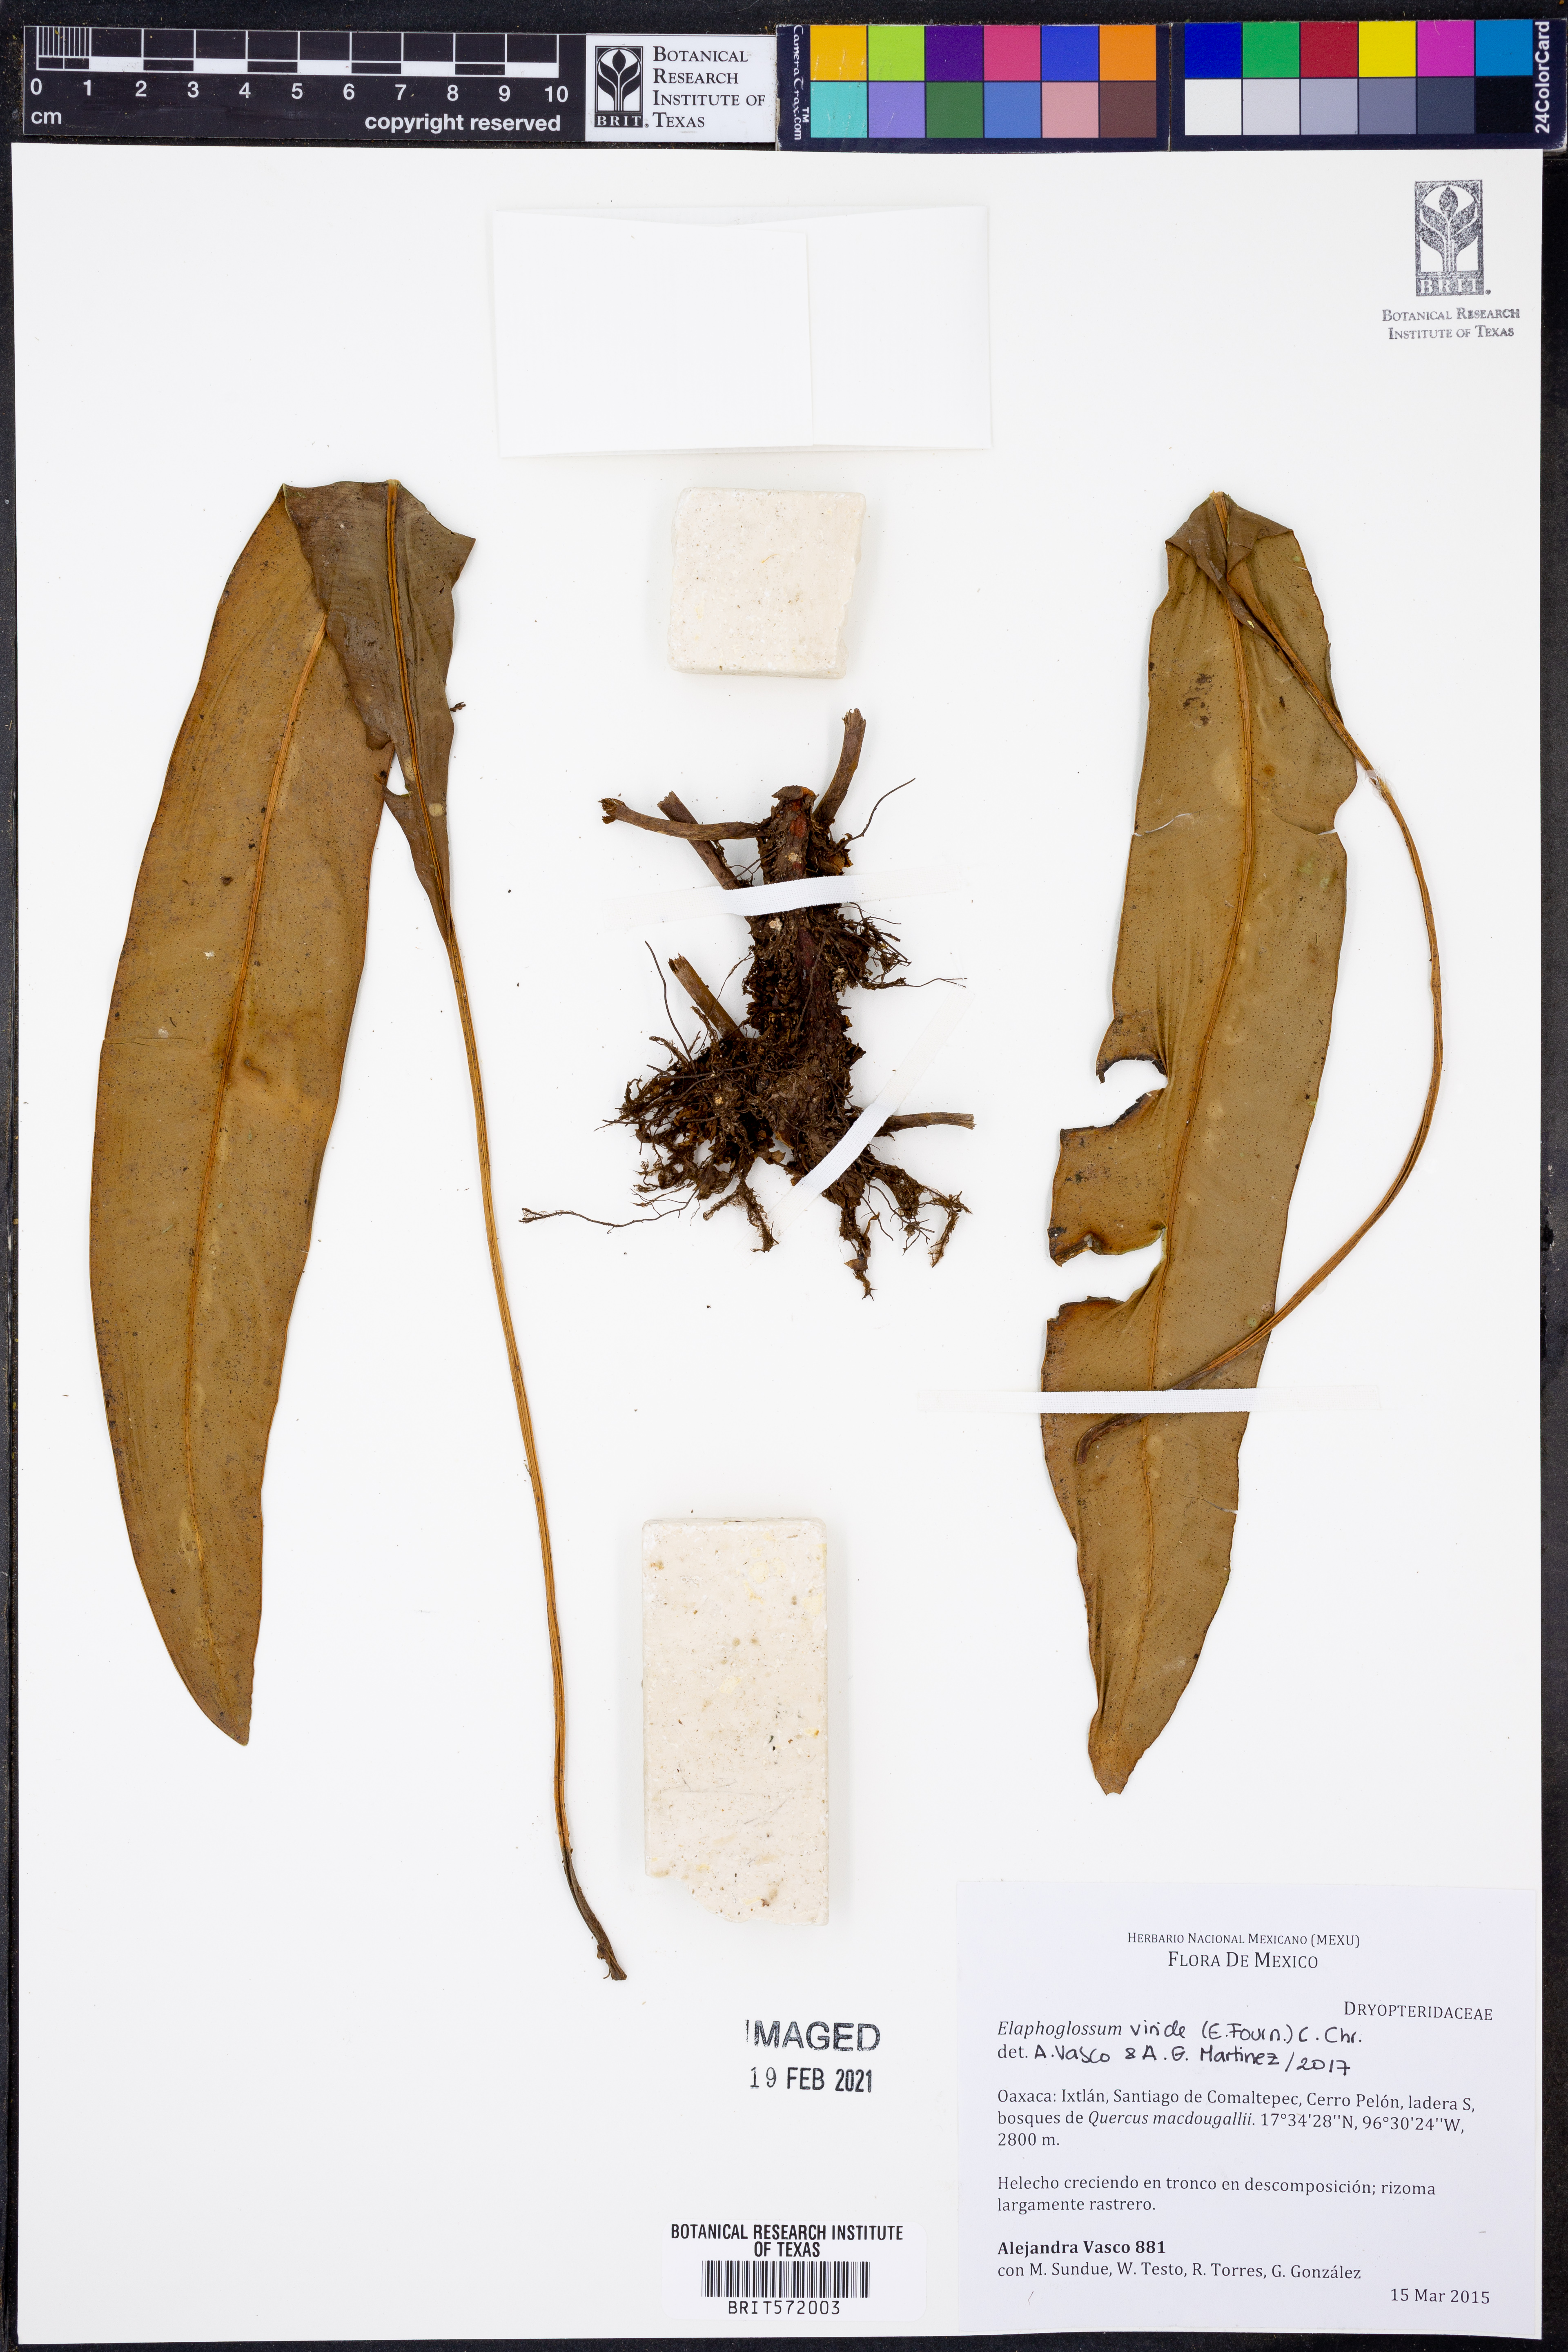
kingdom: Plantae
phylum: Tracheophyta
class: Polypodiopsida
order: Polypodiales
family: Dryopteridaceae
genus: Elaphoglossum
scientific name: Elaphoglossum viride
